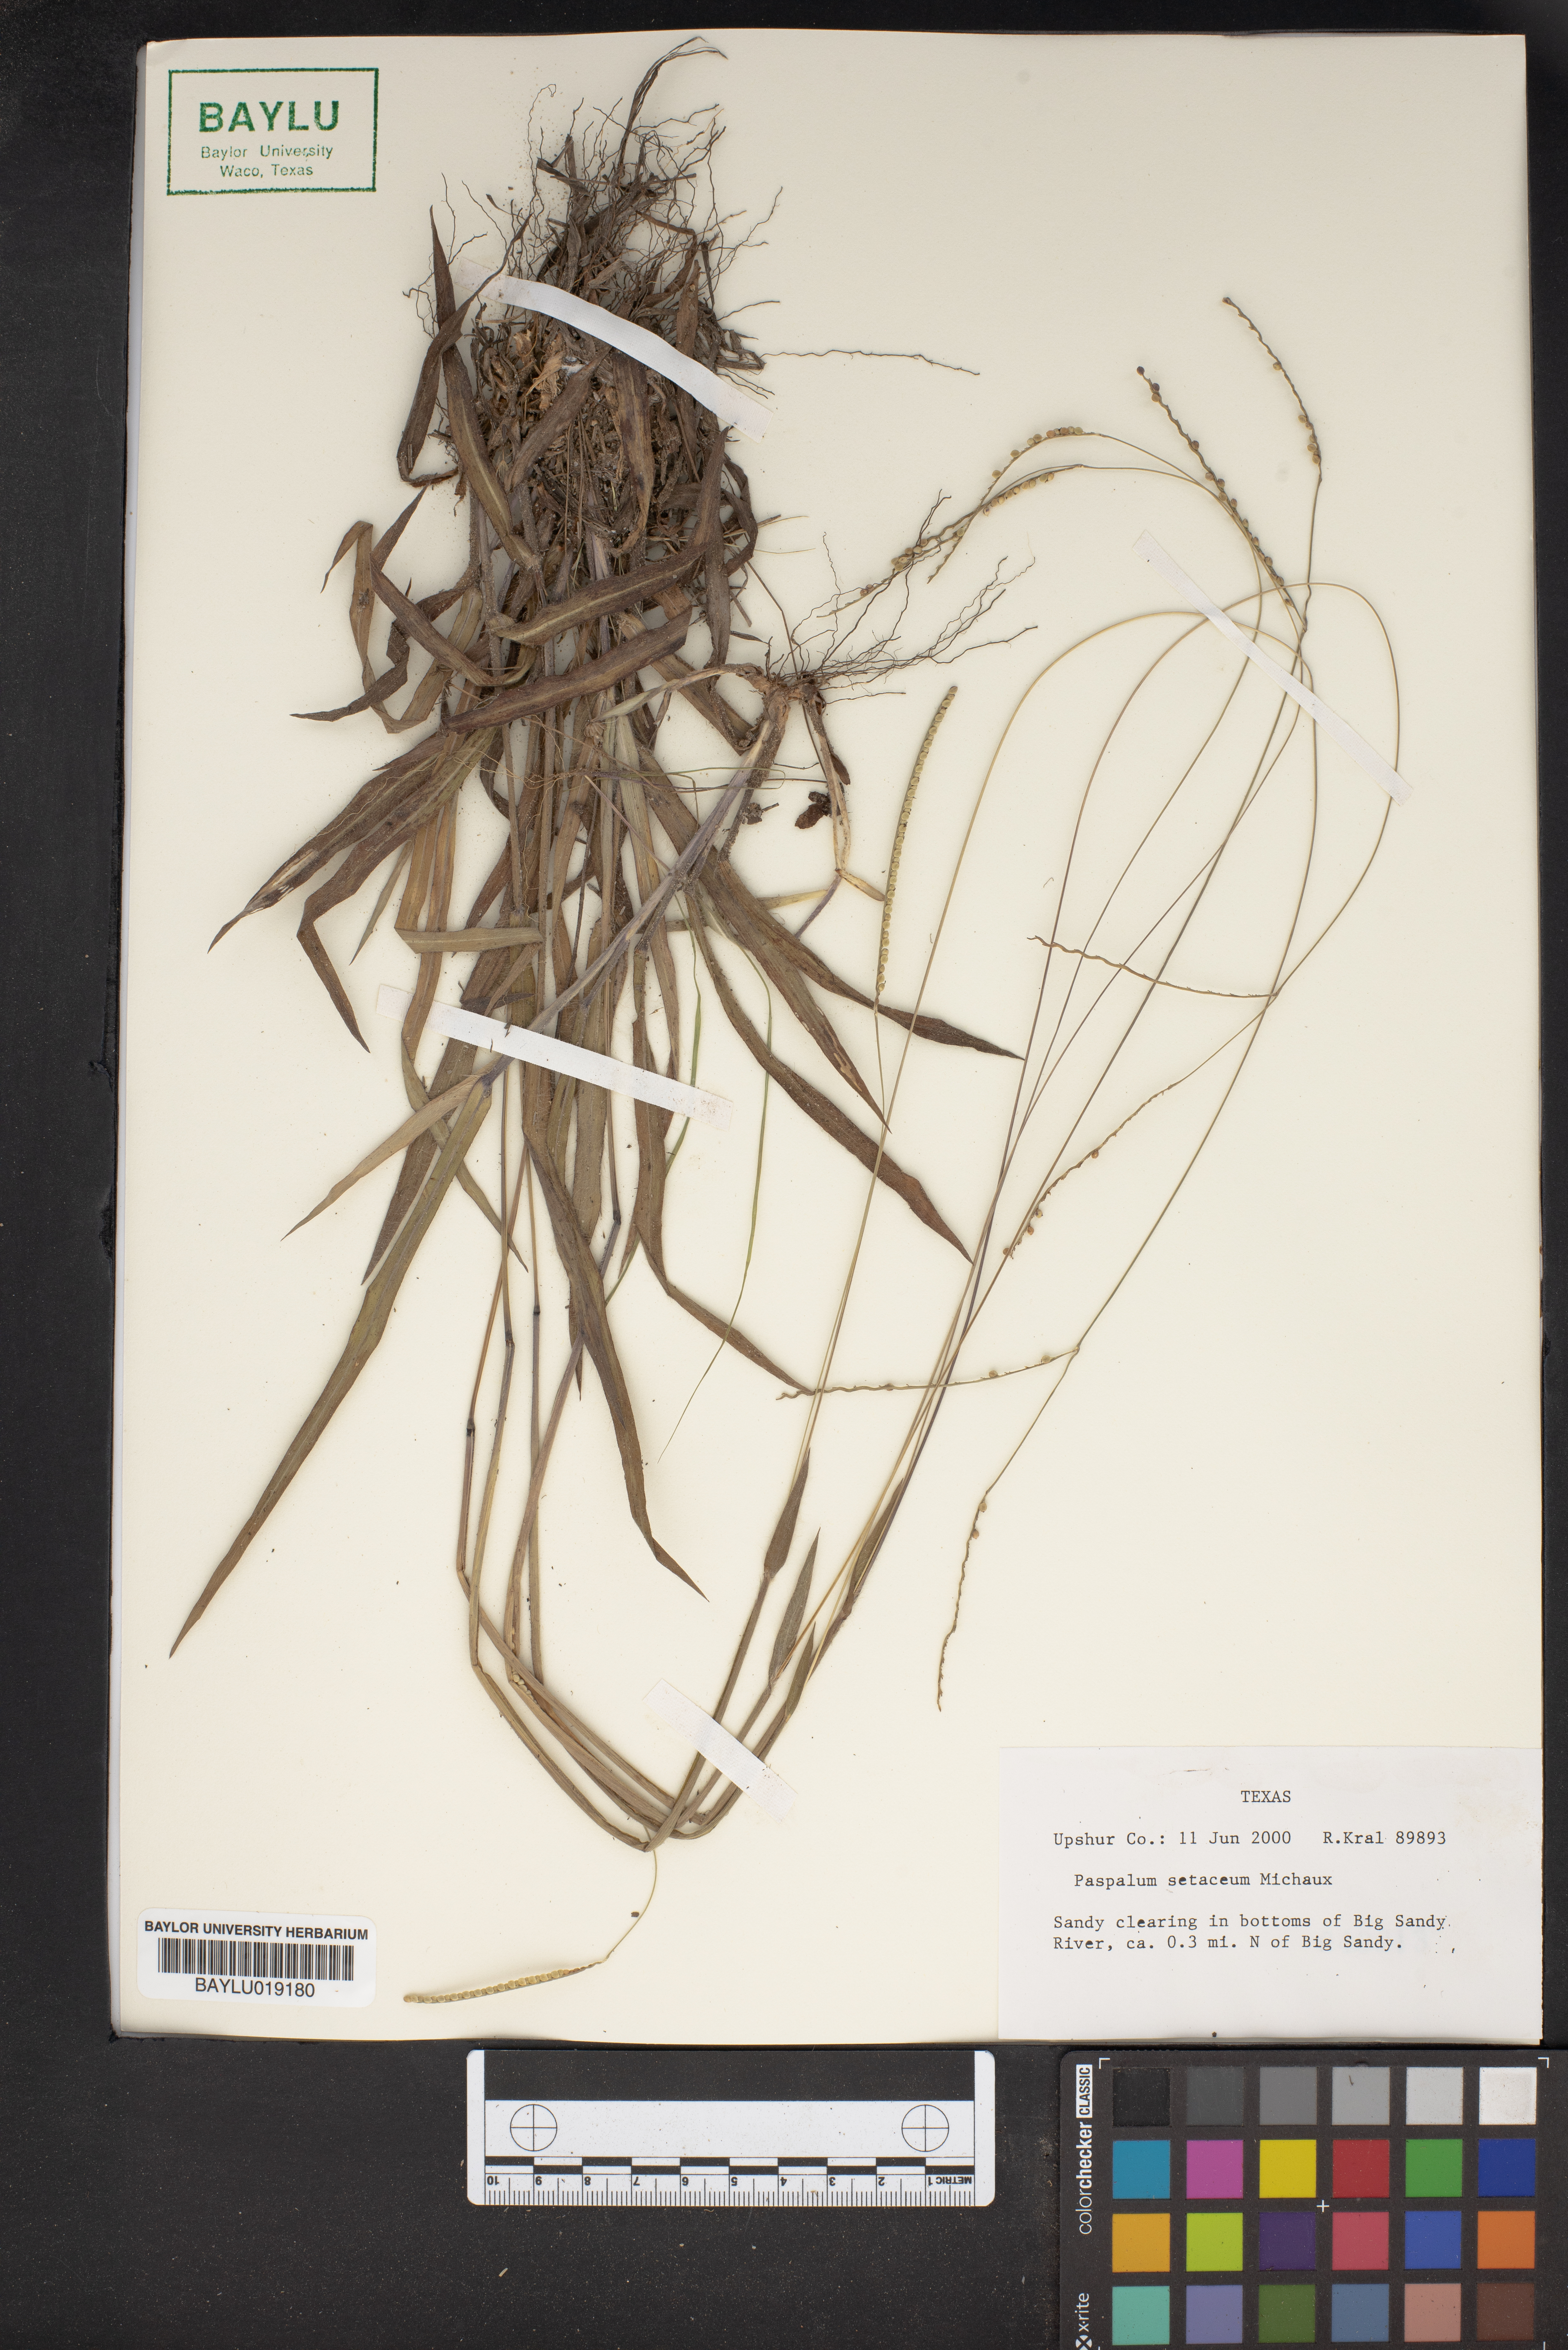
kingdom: Plantae
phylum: Tracheophyta
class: Liliopsida
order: Poales
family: Poaceae
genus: Paspalum
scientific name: Paspalum setaceum
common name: Slender paspalum
